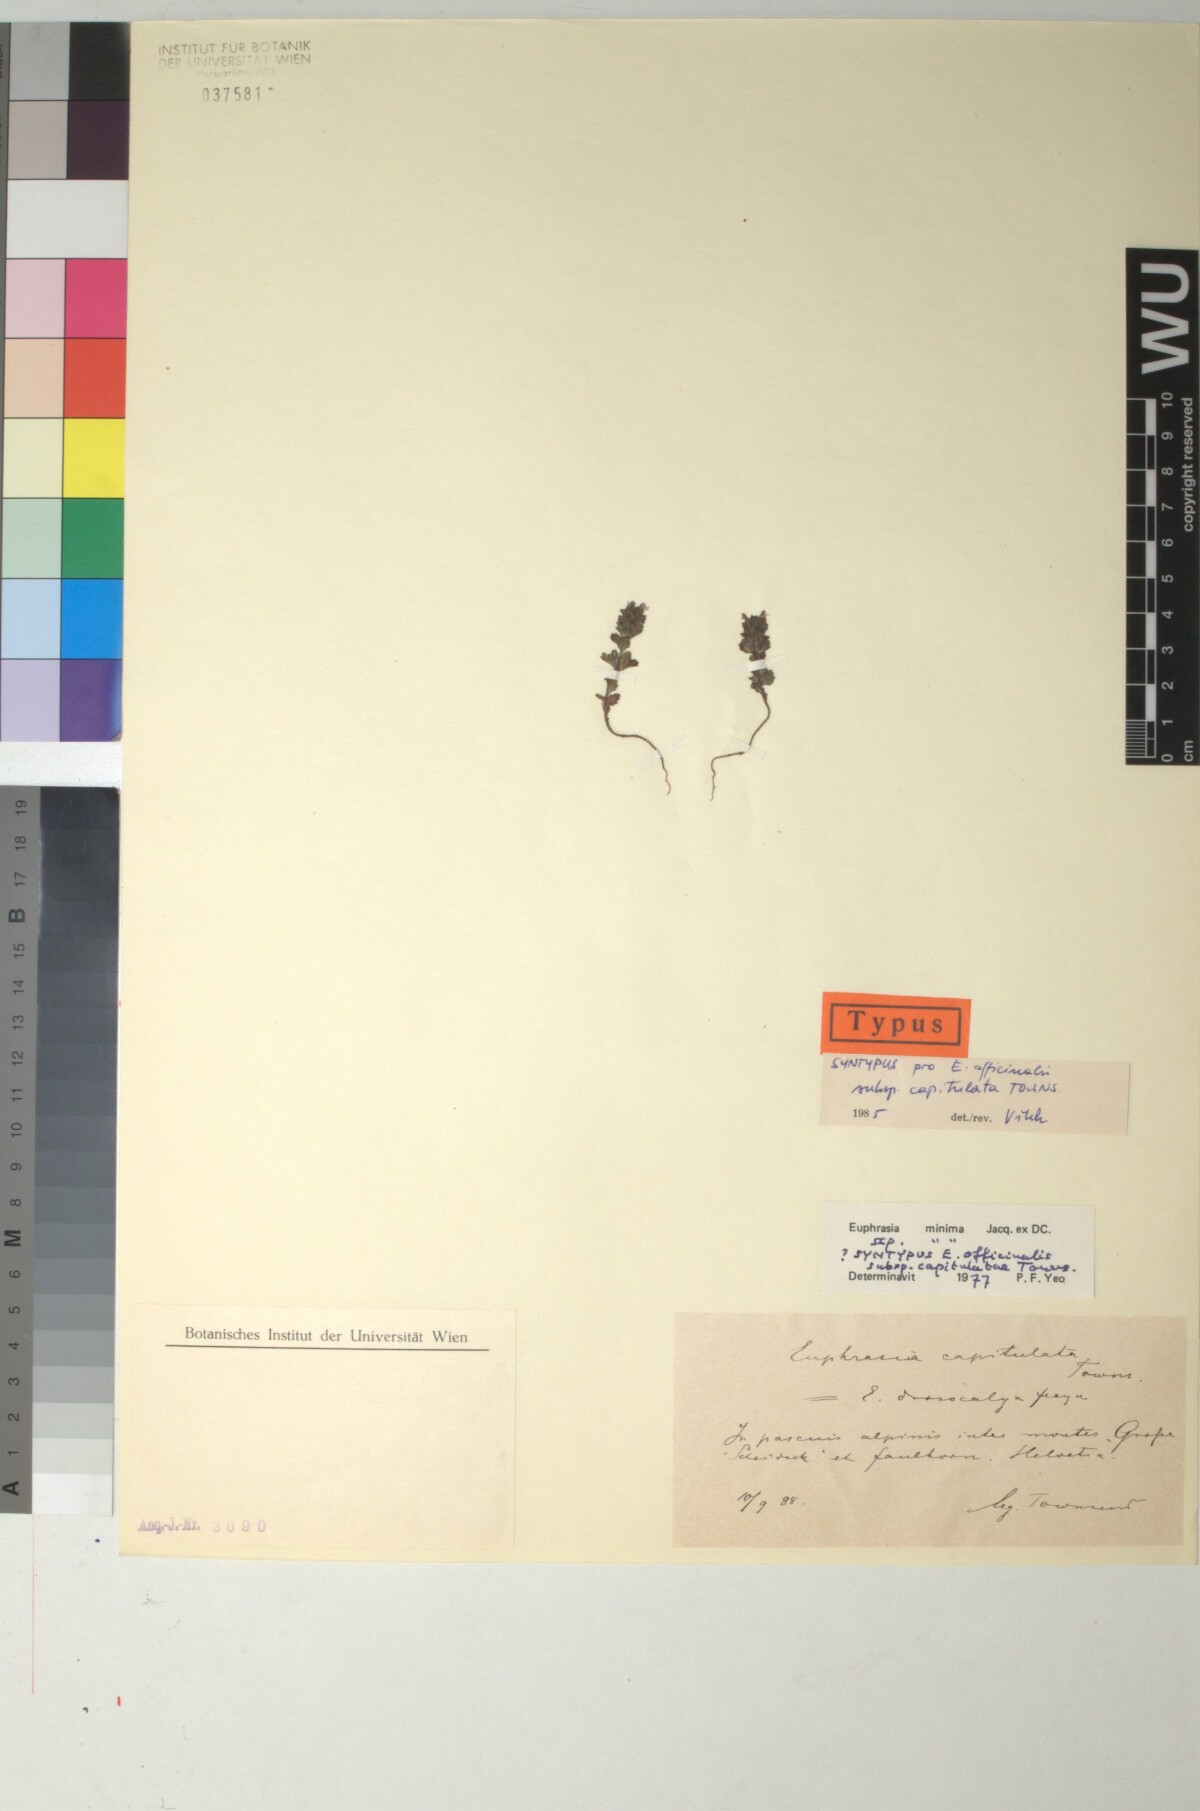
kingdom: Plantae
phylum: Tracheophyta
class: Magnoliopsida
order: Lamiales
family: Orobanchaceae
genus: Euphrasia
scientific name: Euphrasia hirtella
